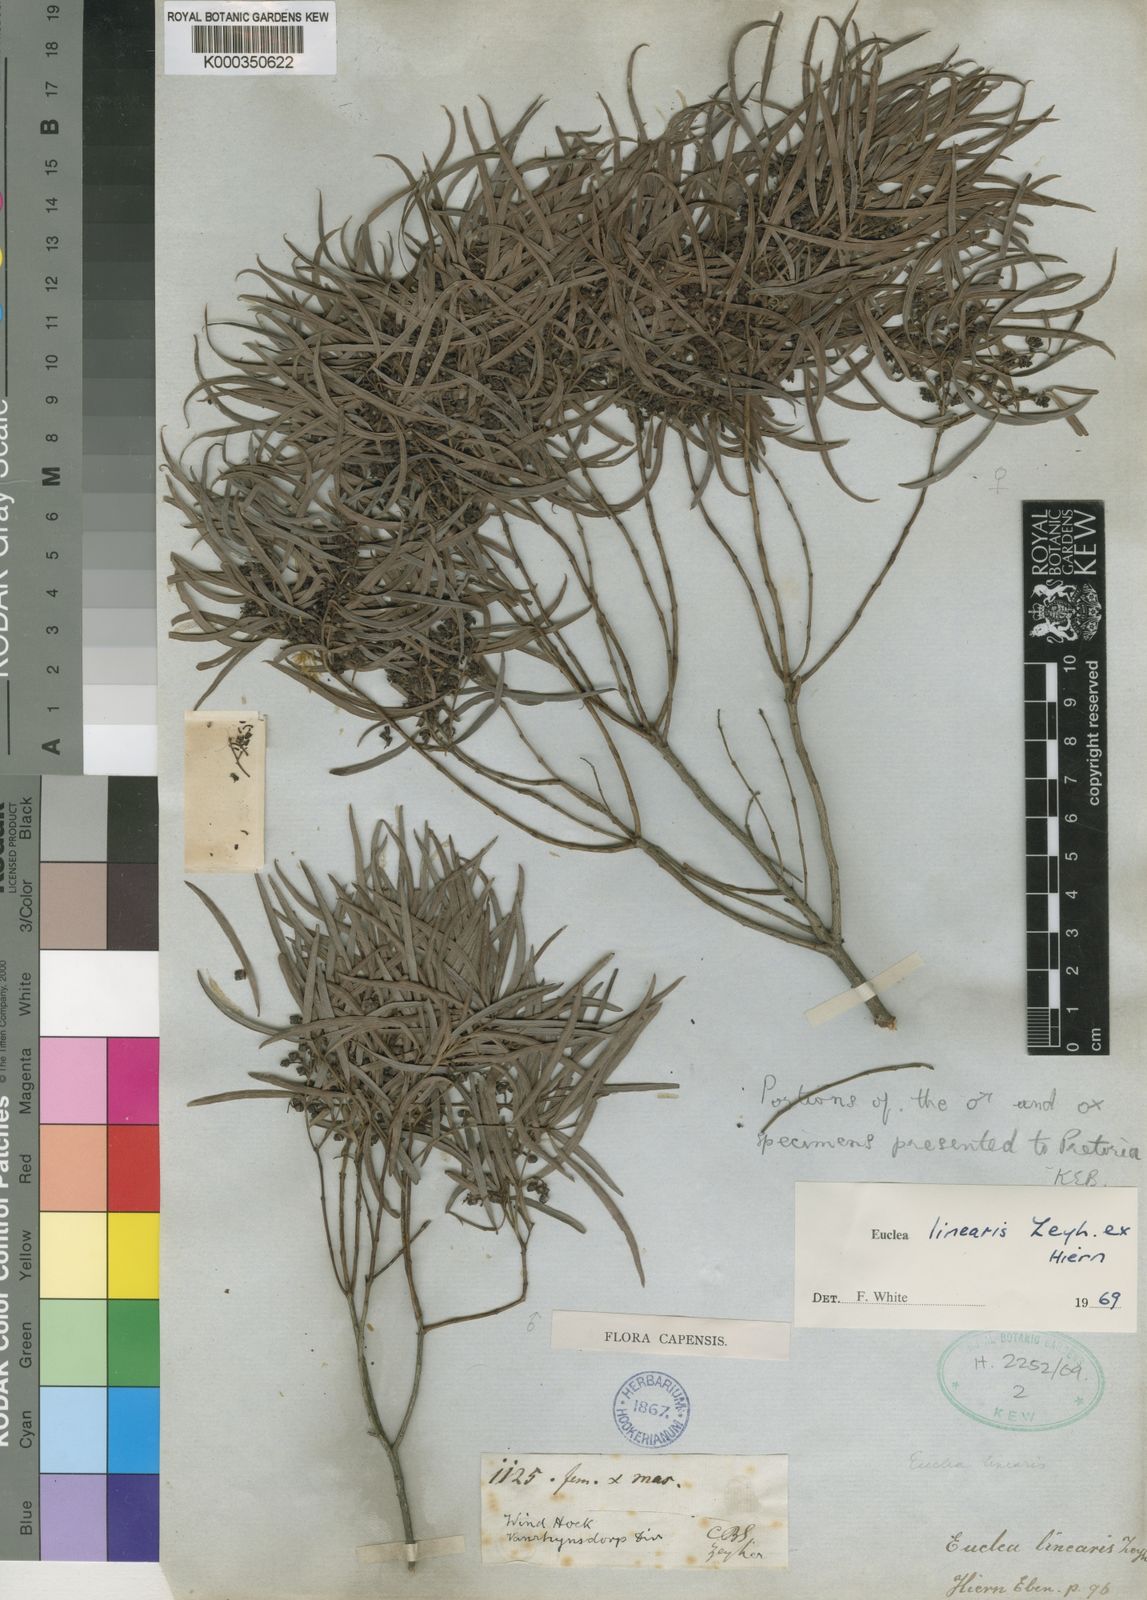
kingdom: Plantae
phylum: Tracheophyta
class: Magnoliopsida
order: Ericales
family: Ebenaceae
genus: Euclea
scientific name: Euclea
